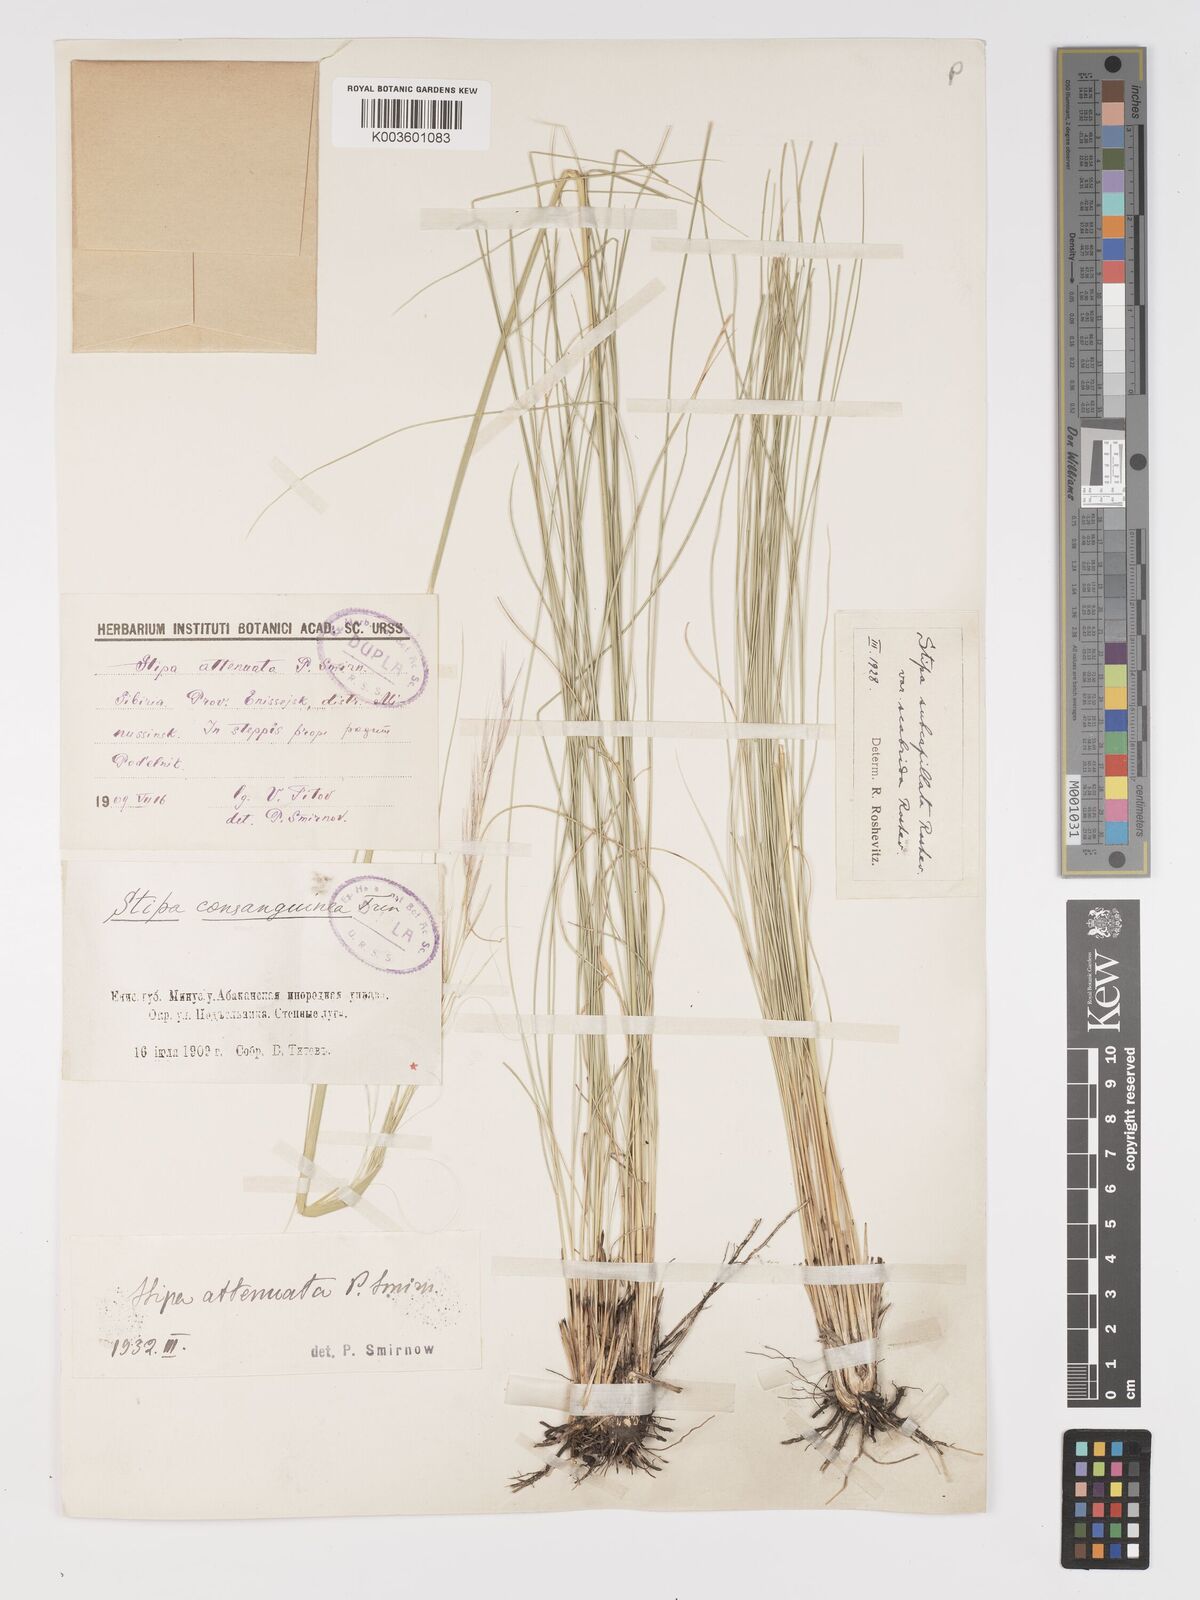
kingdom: Plantae
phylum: Tracheophyta
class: Liliopsida
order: Poales
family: Poaceae
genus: Stipa
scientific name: Stipa baicalensis
